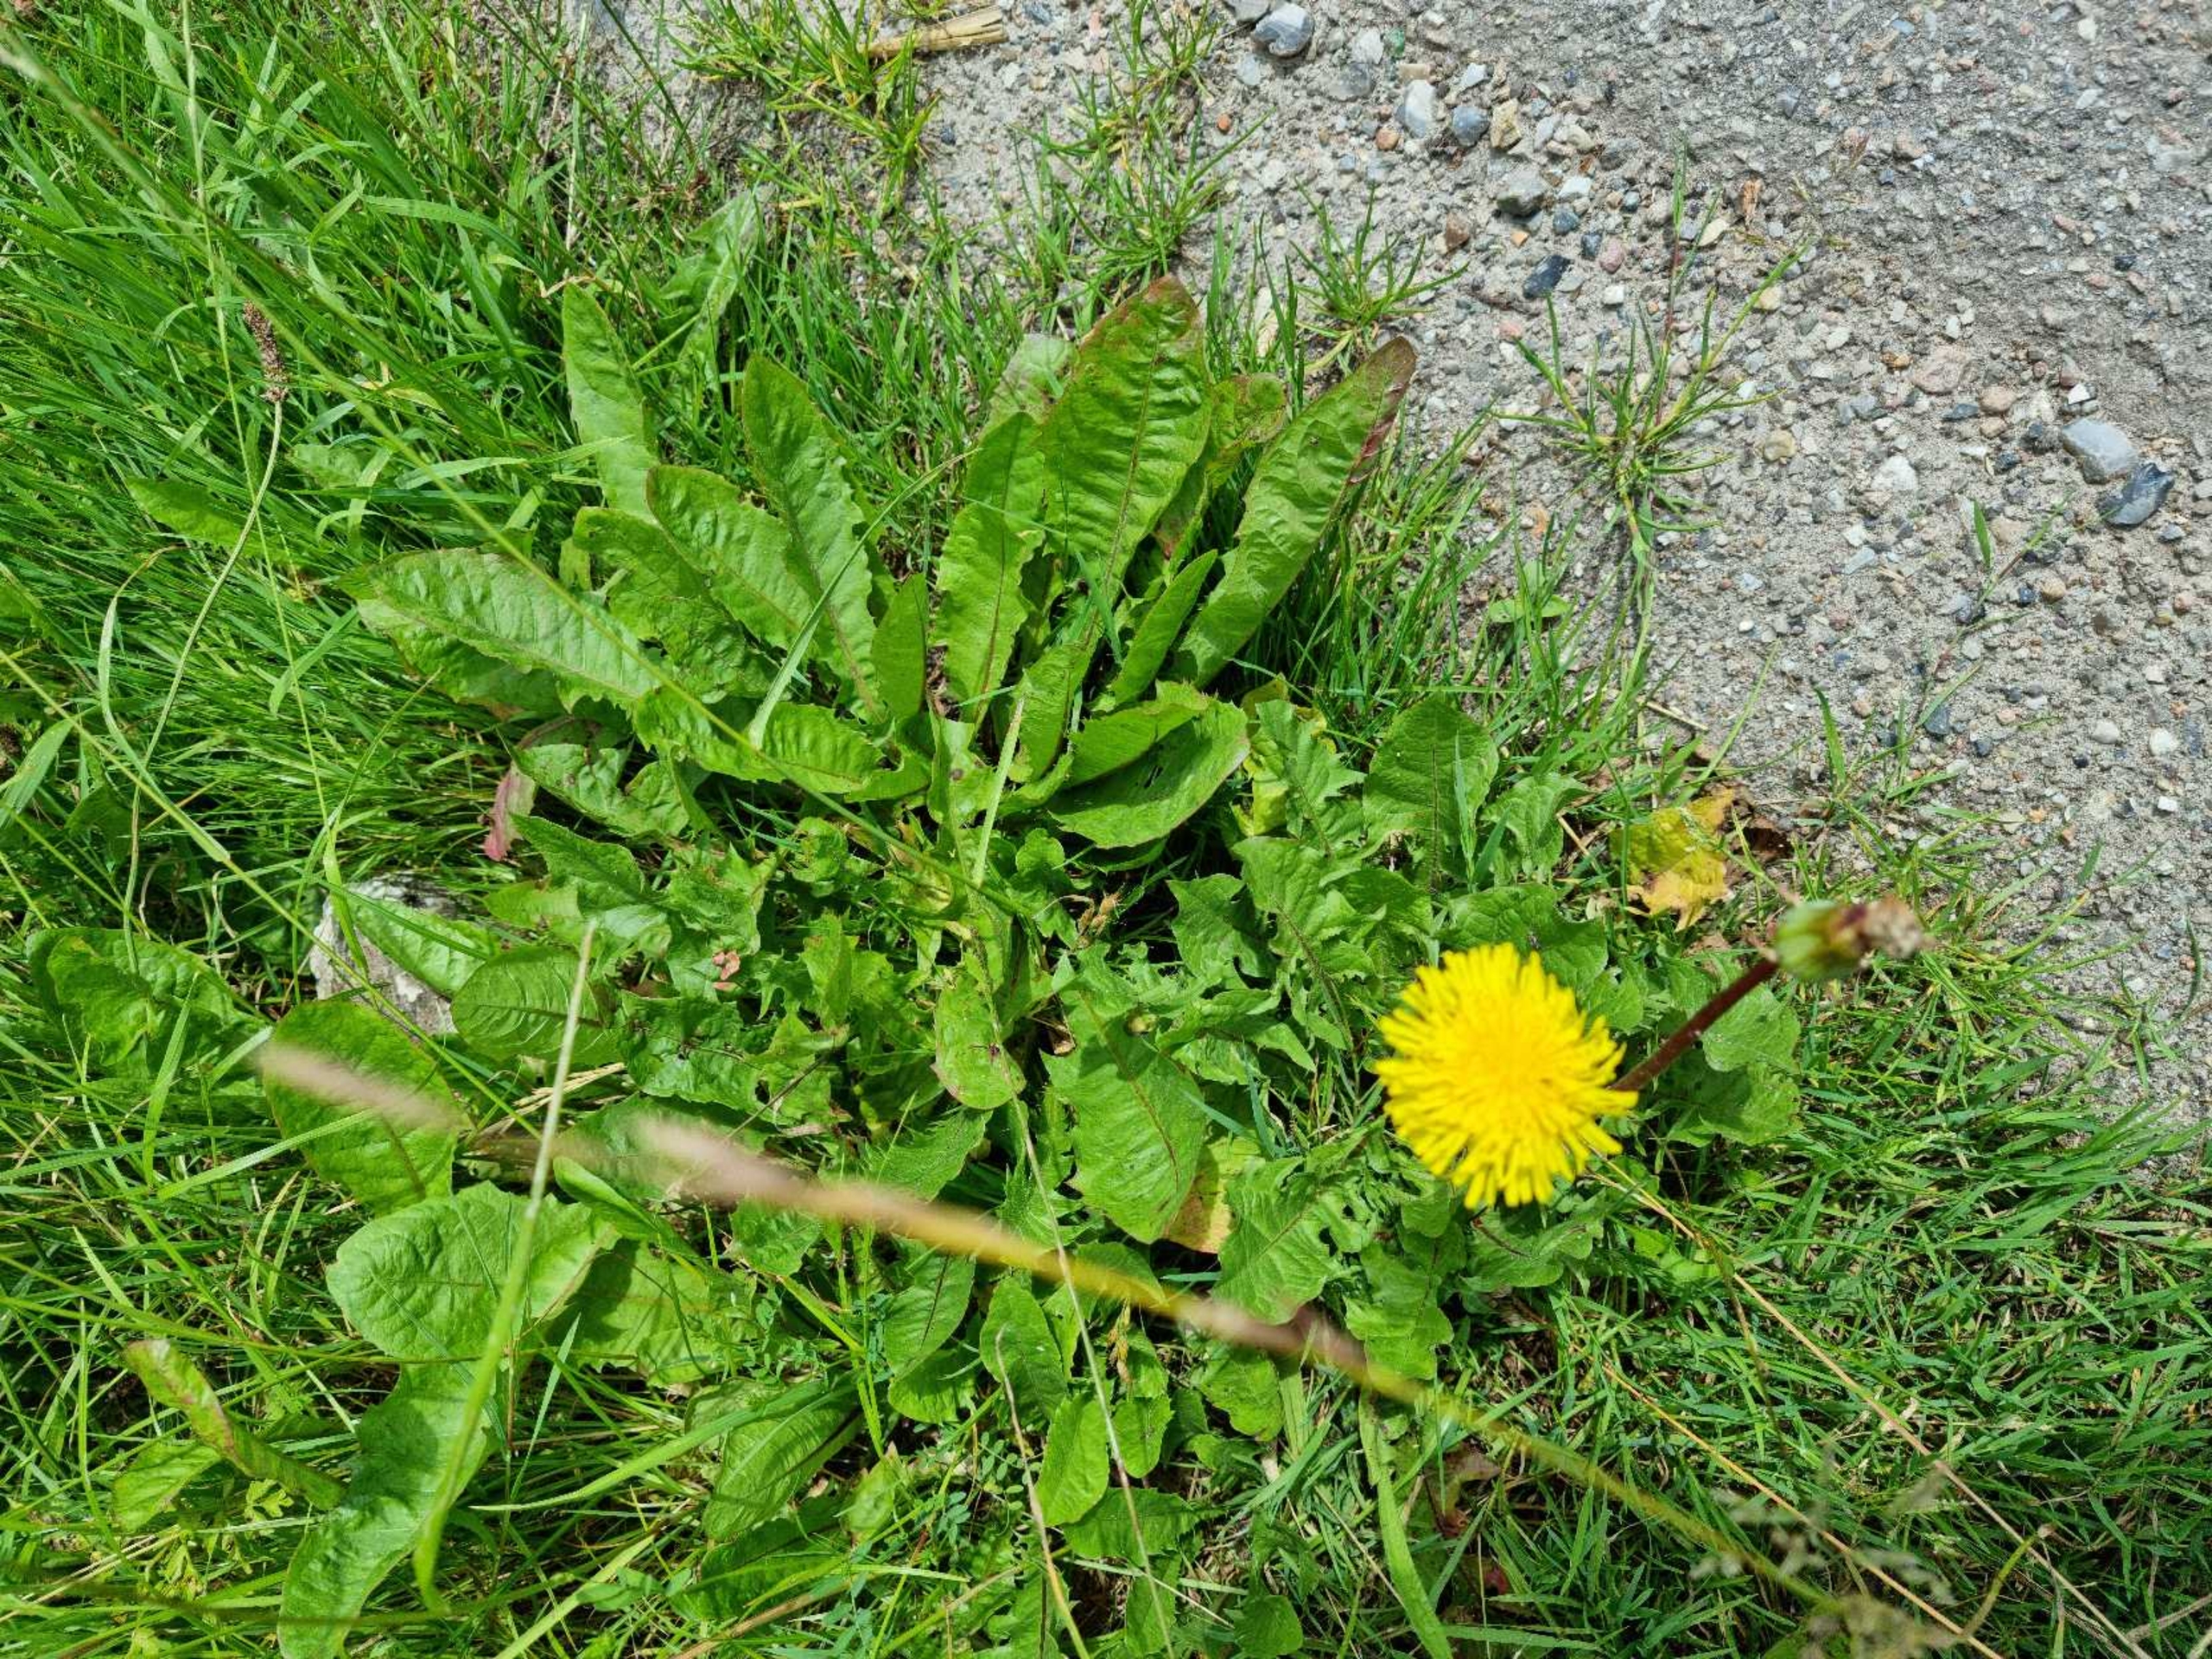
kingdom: Plantae
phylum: Tracheophyta
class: Magnoliopsida
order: Asterales
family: Asteraceae
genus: Taraxacum
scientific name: Taraxacum
